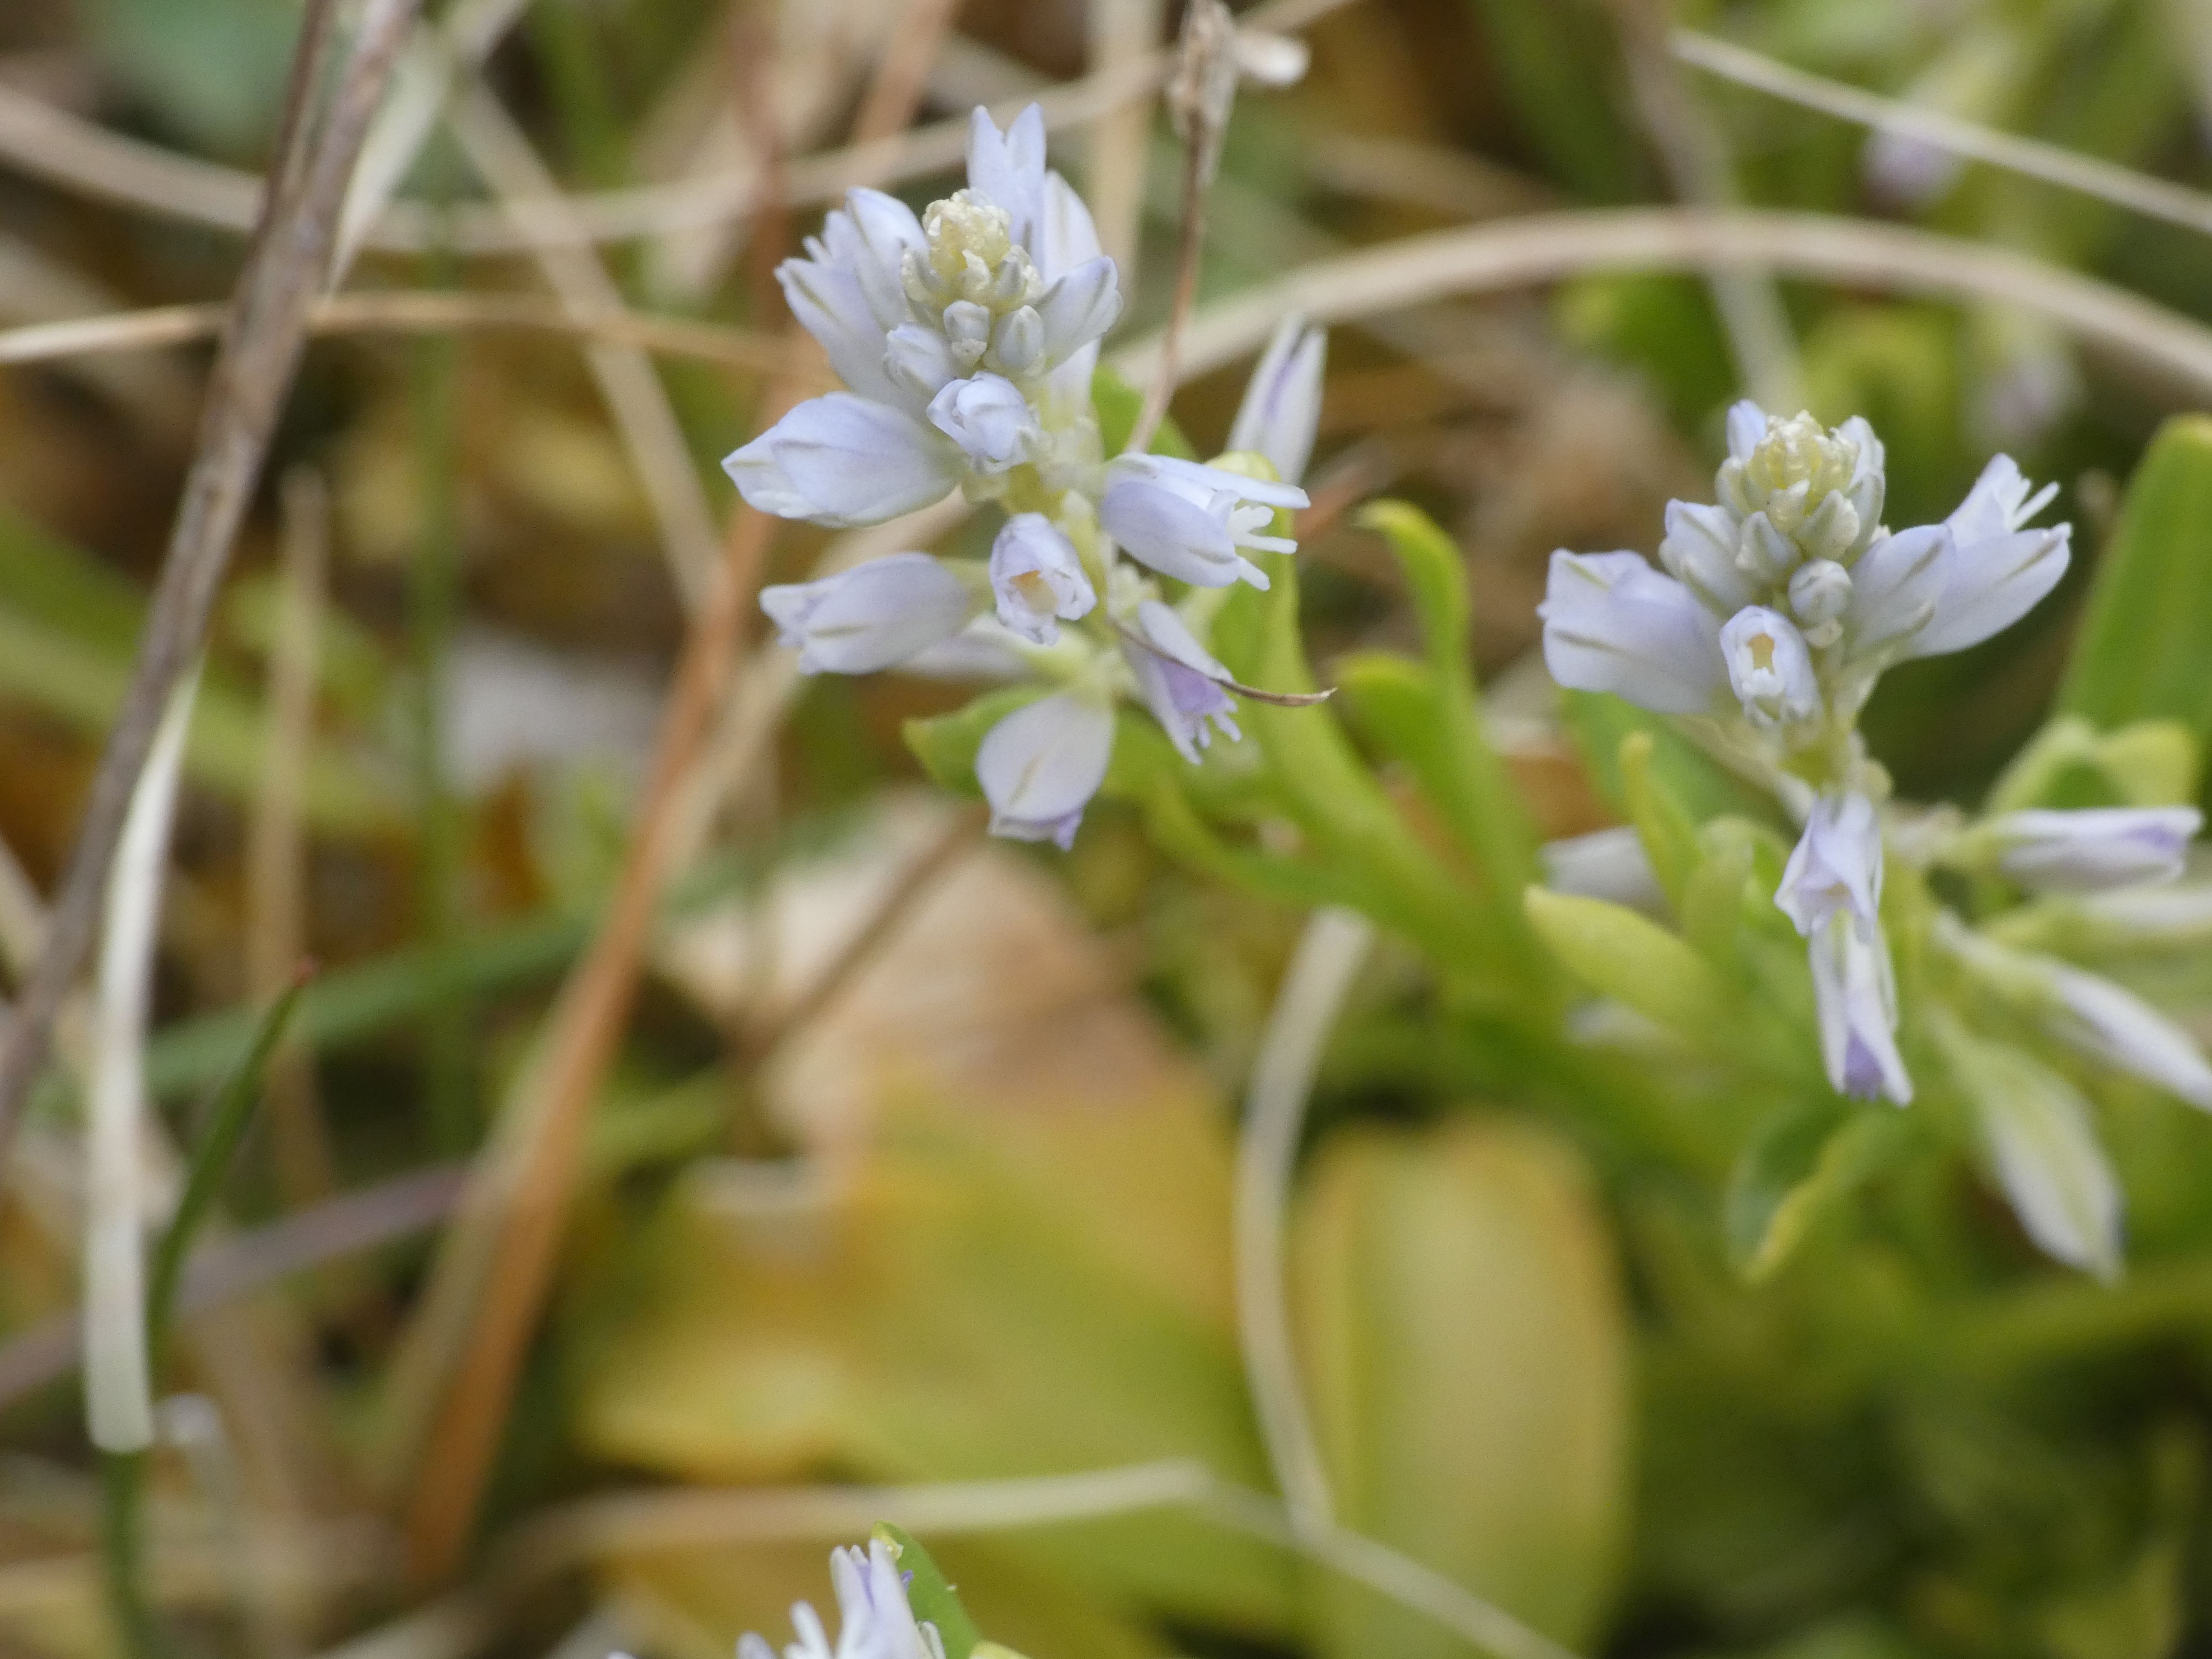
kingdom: Plantae
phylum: Tracheophyta
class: Magnoliopsida
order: Fabales
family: Polygalaceae
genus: Polygala
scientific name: Polygala amarella
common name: Bitter mælkeurt
